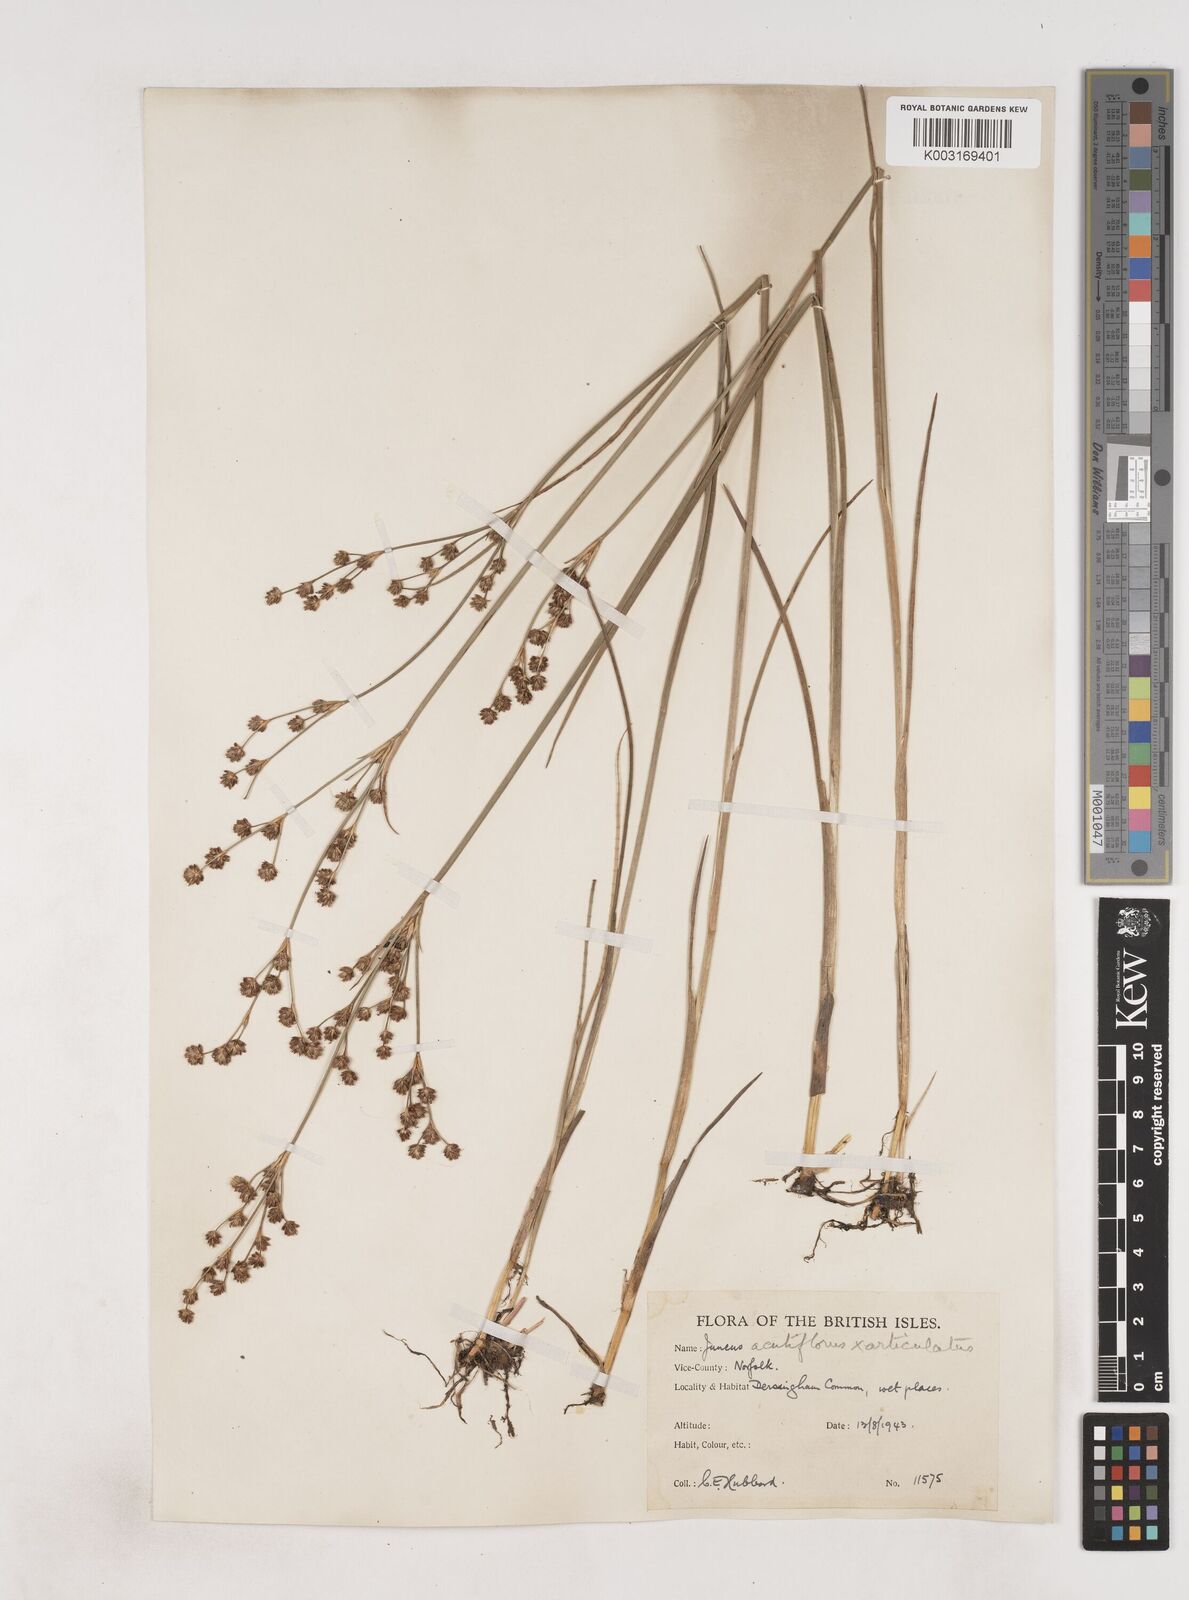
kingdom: Plantae
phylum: Tracheophyta
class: Liliopsida
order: Poales
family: Juncaceae
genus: Juncus
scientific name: Juncus acutiflorus
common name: Sharp-flowered rush
